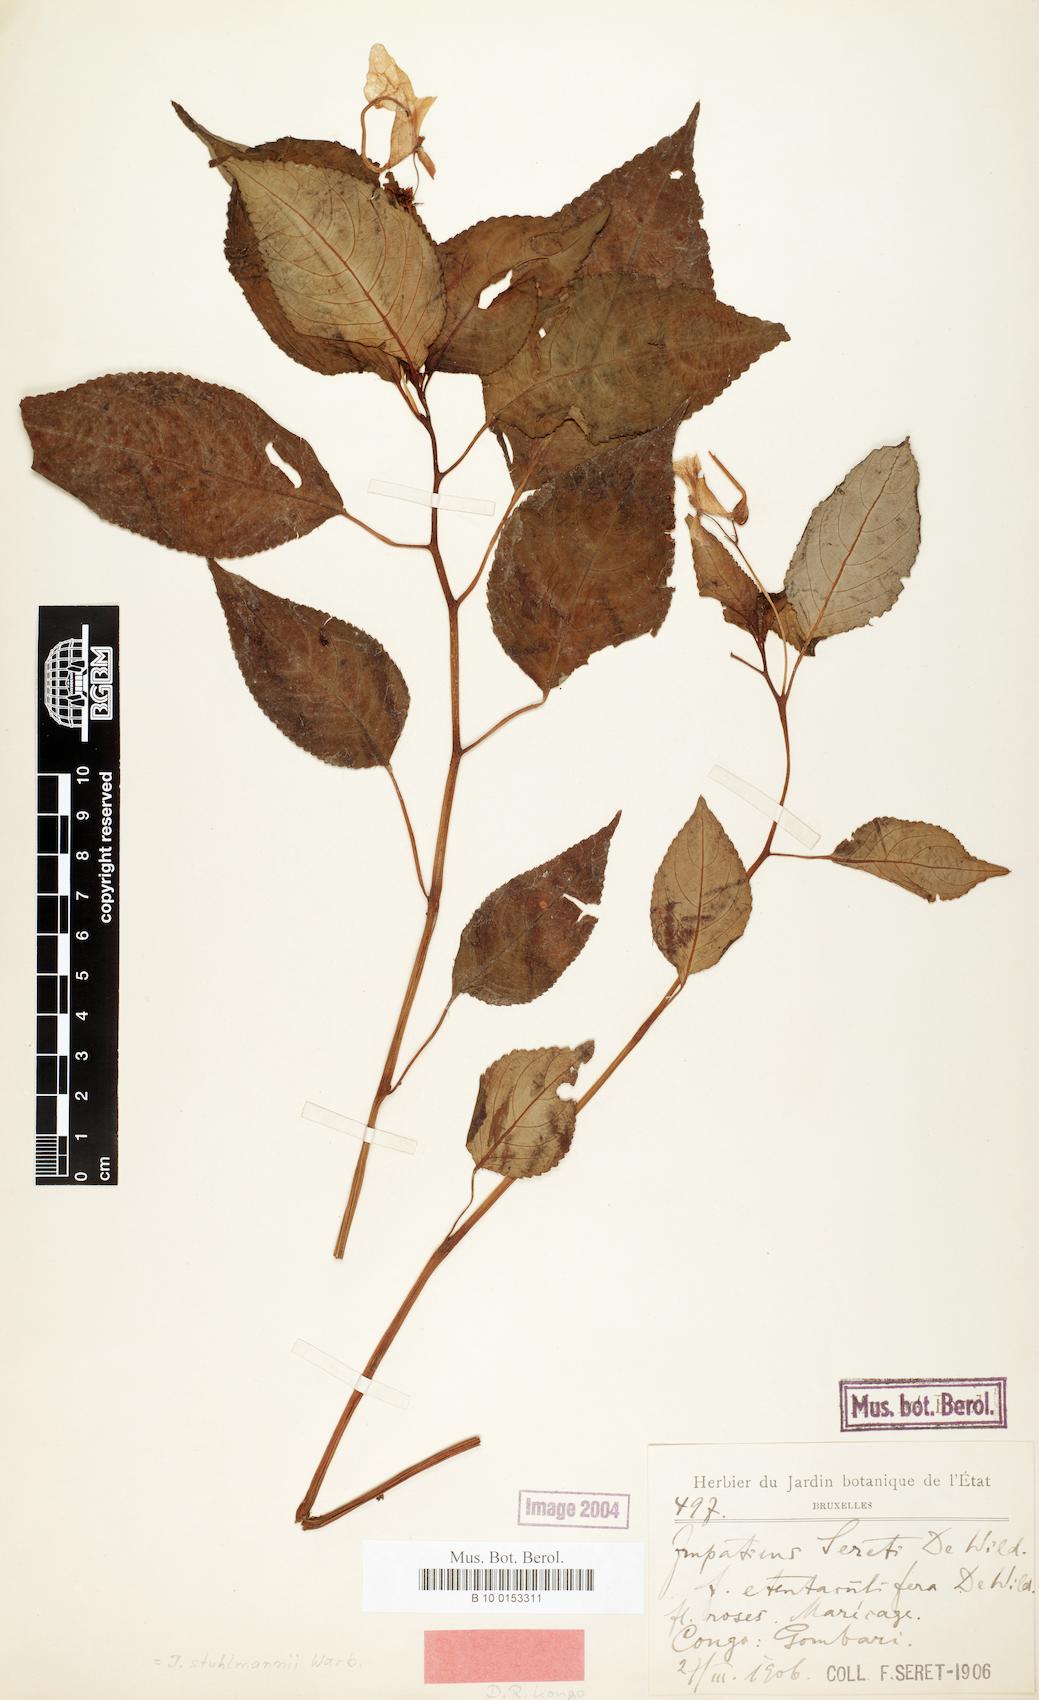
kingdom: Plantae
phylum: Tracheophyta
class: Magnoliopsida
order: Ericales
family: Balsaminaceae
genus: Impatiens
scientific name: Impatiens stuhlmannii
